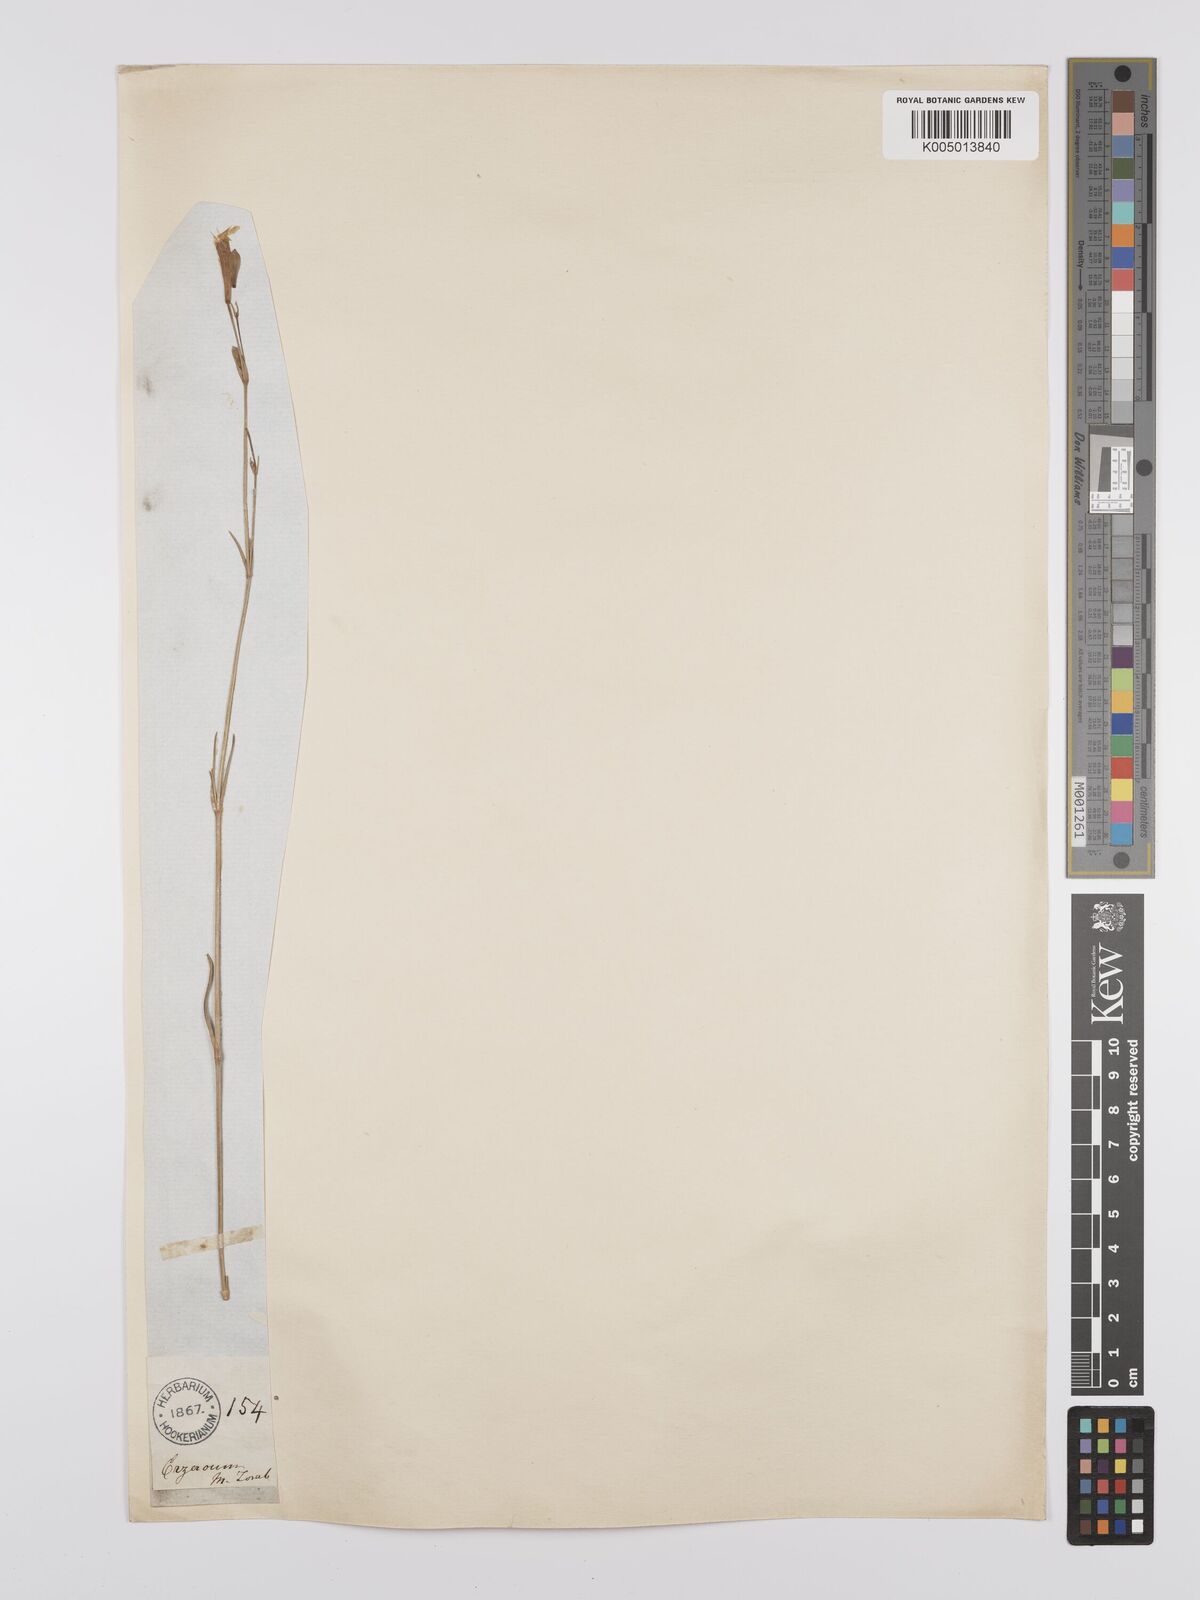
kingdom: Plantae
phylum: Tracheophyta
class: Magnoliopsida
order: Caryophyllales
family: Caryophyllaceae
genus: Silene
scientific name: Silene
